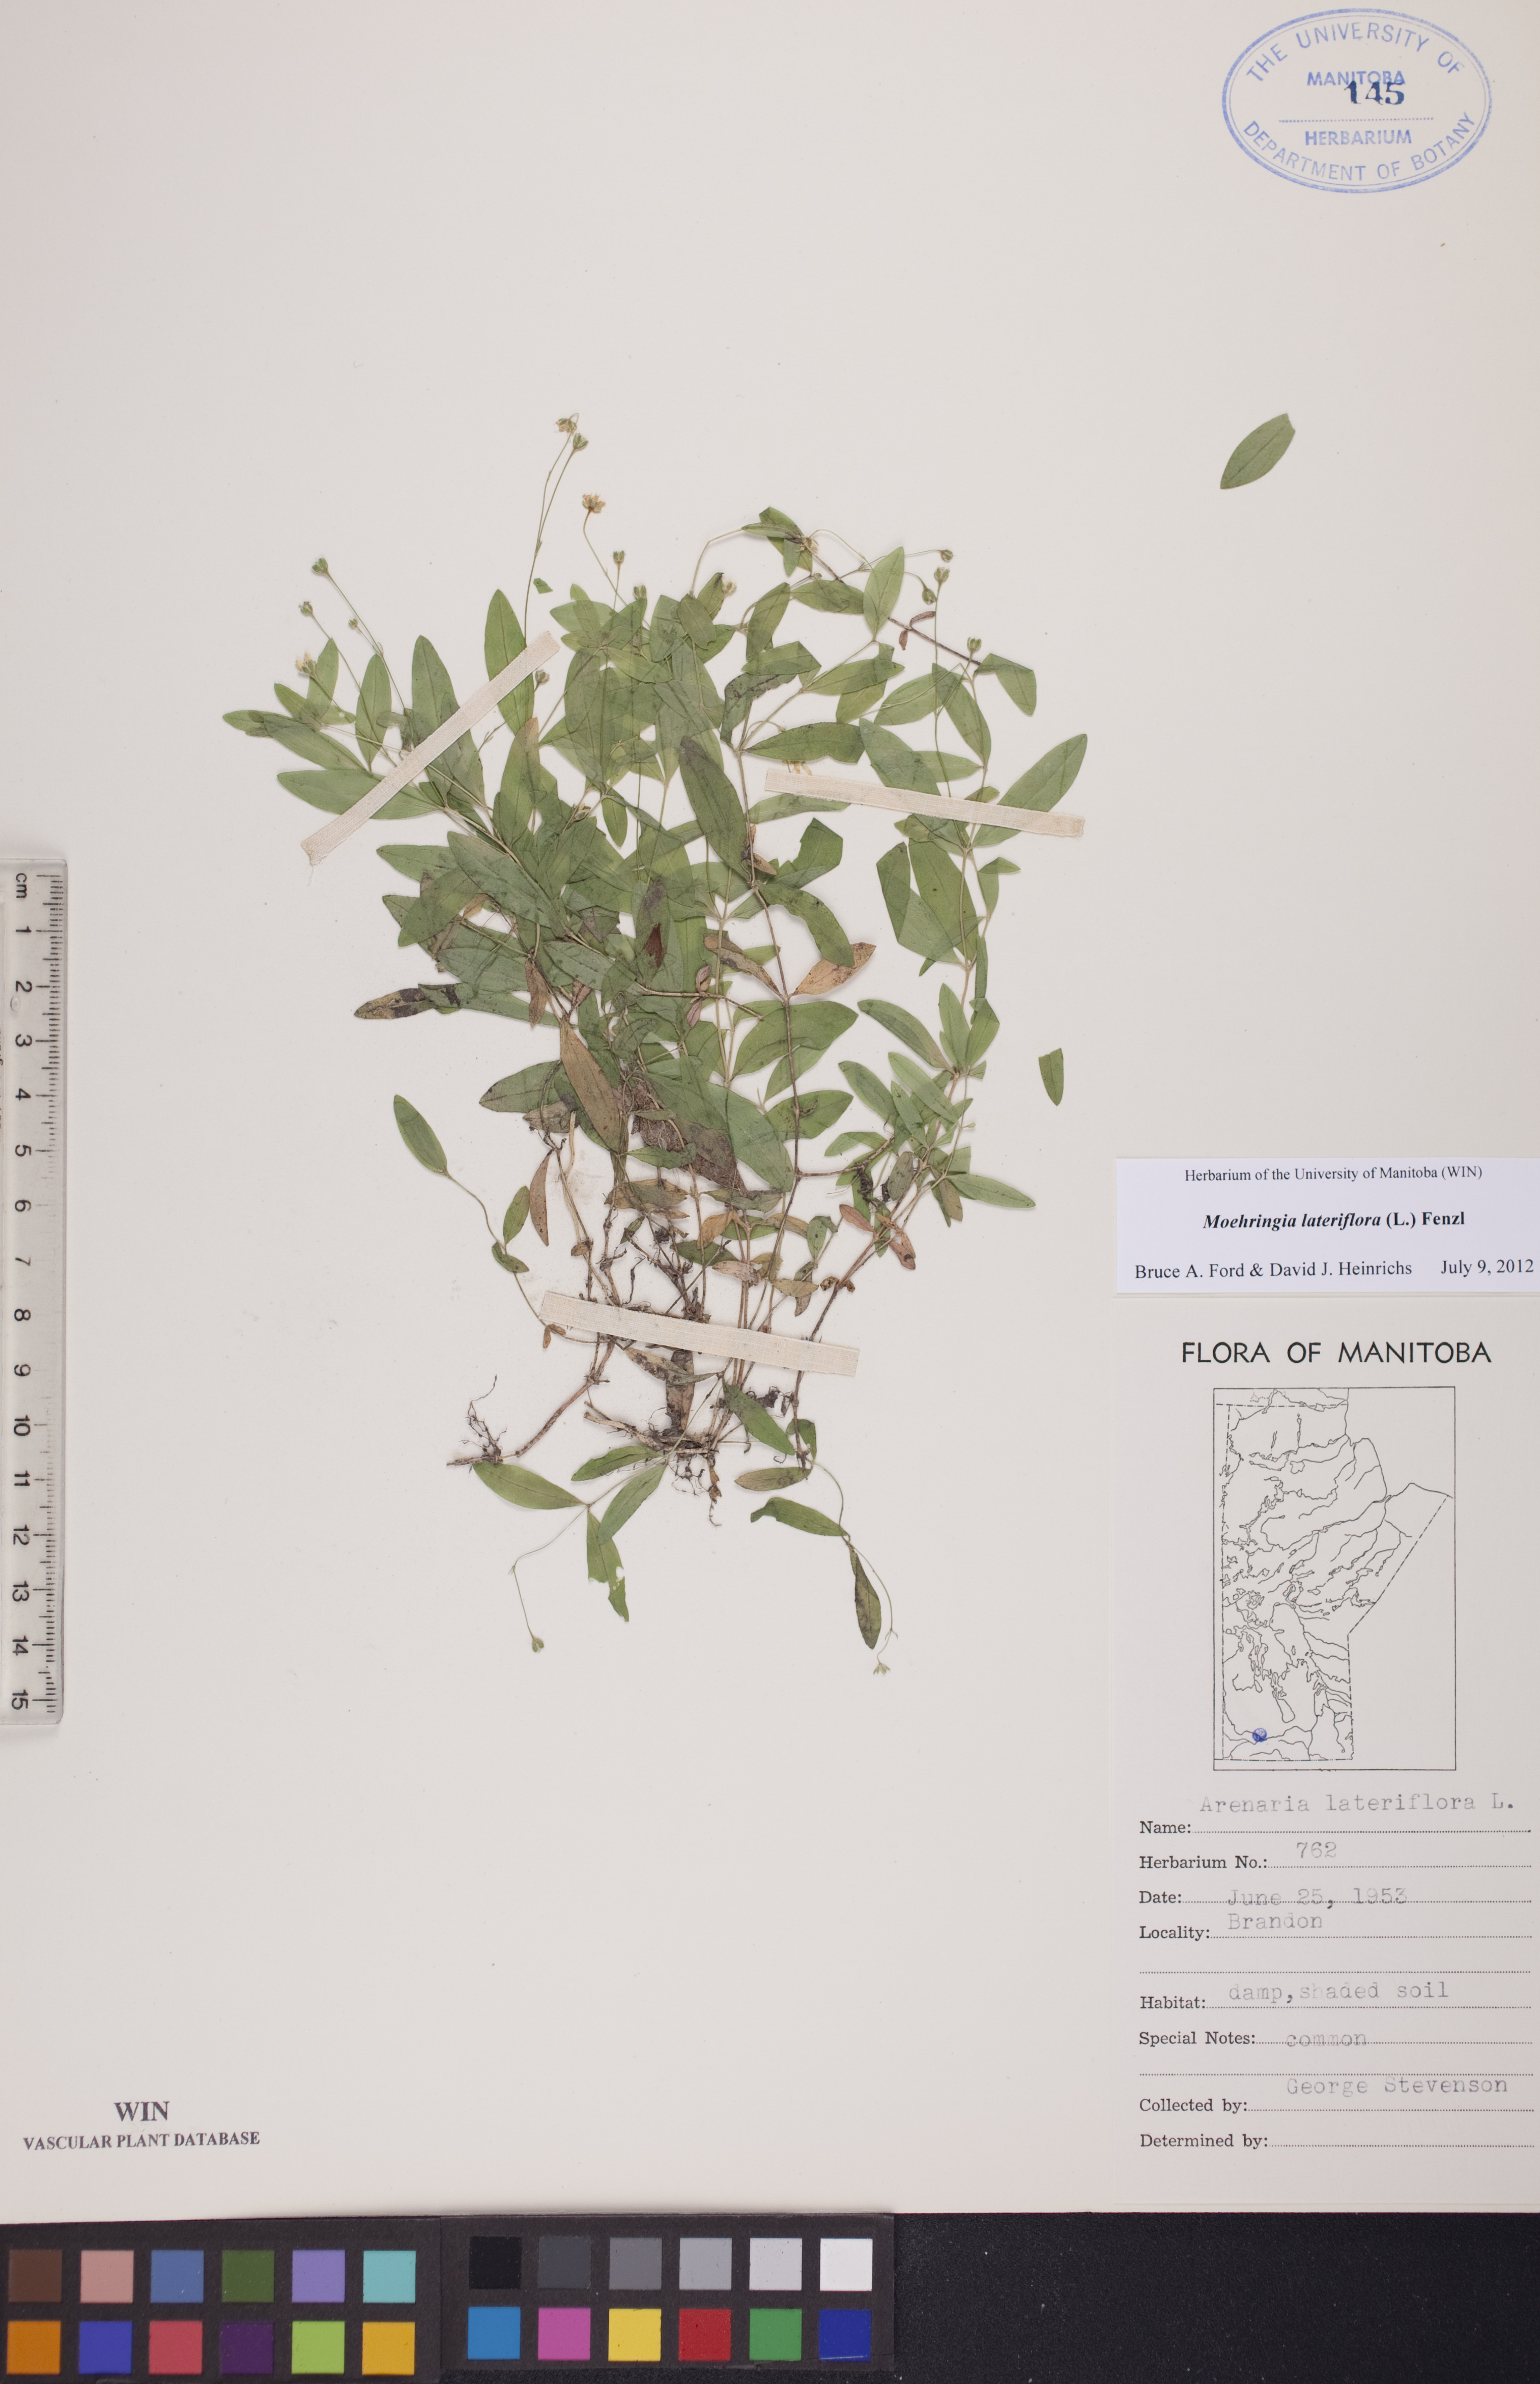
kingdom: Plantae
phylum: Tracheophyta
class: Magnoliopsida
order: Caryophyllales
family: Caryophyllaceae
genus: Moehringia
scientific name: Moehringia lateriflora
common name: Blunt-leaved sandwort
